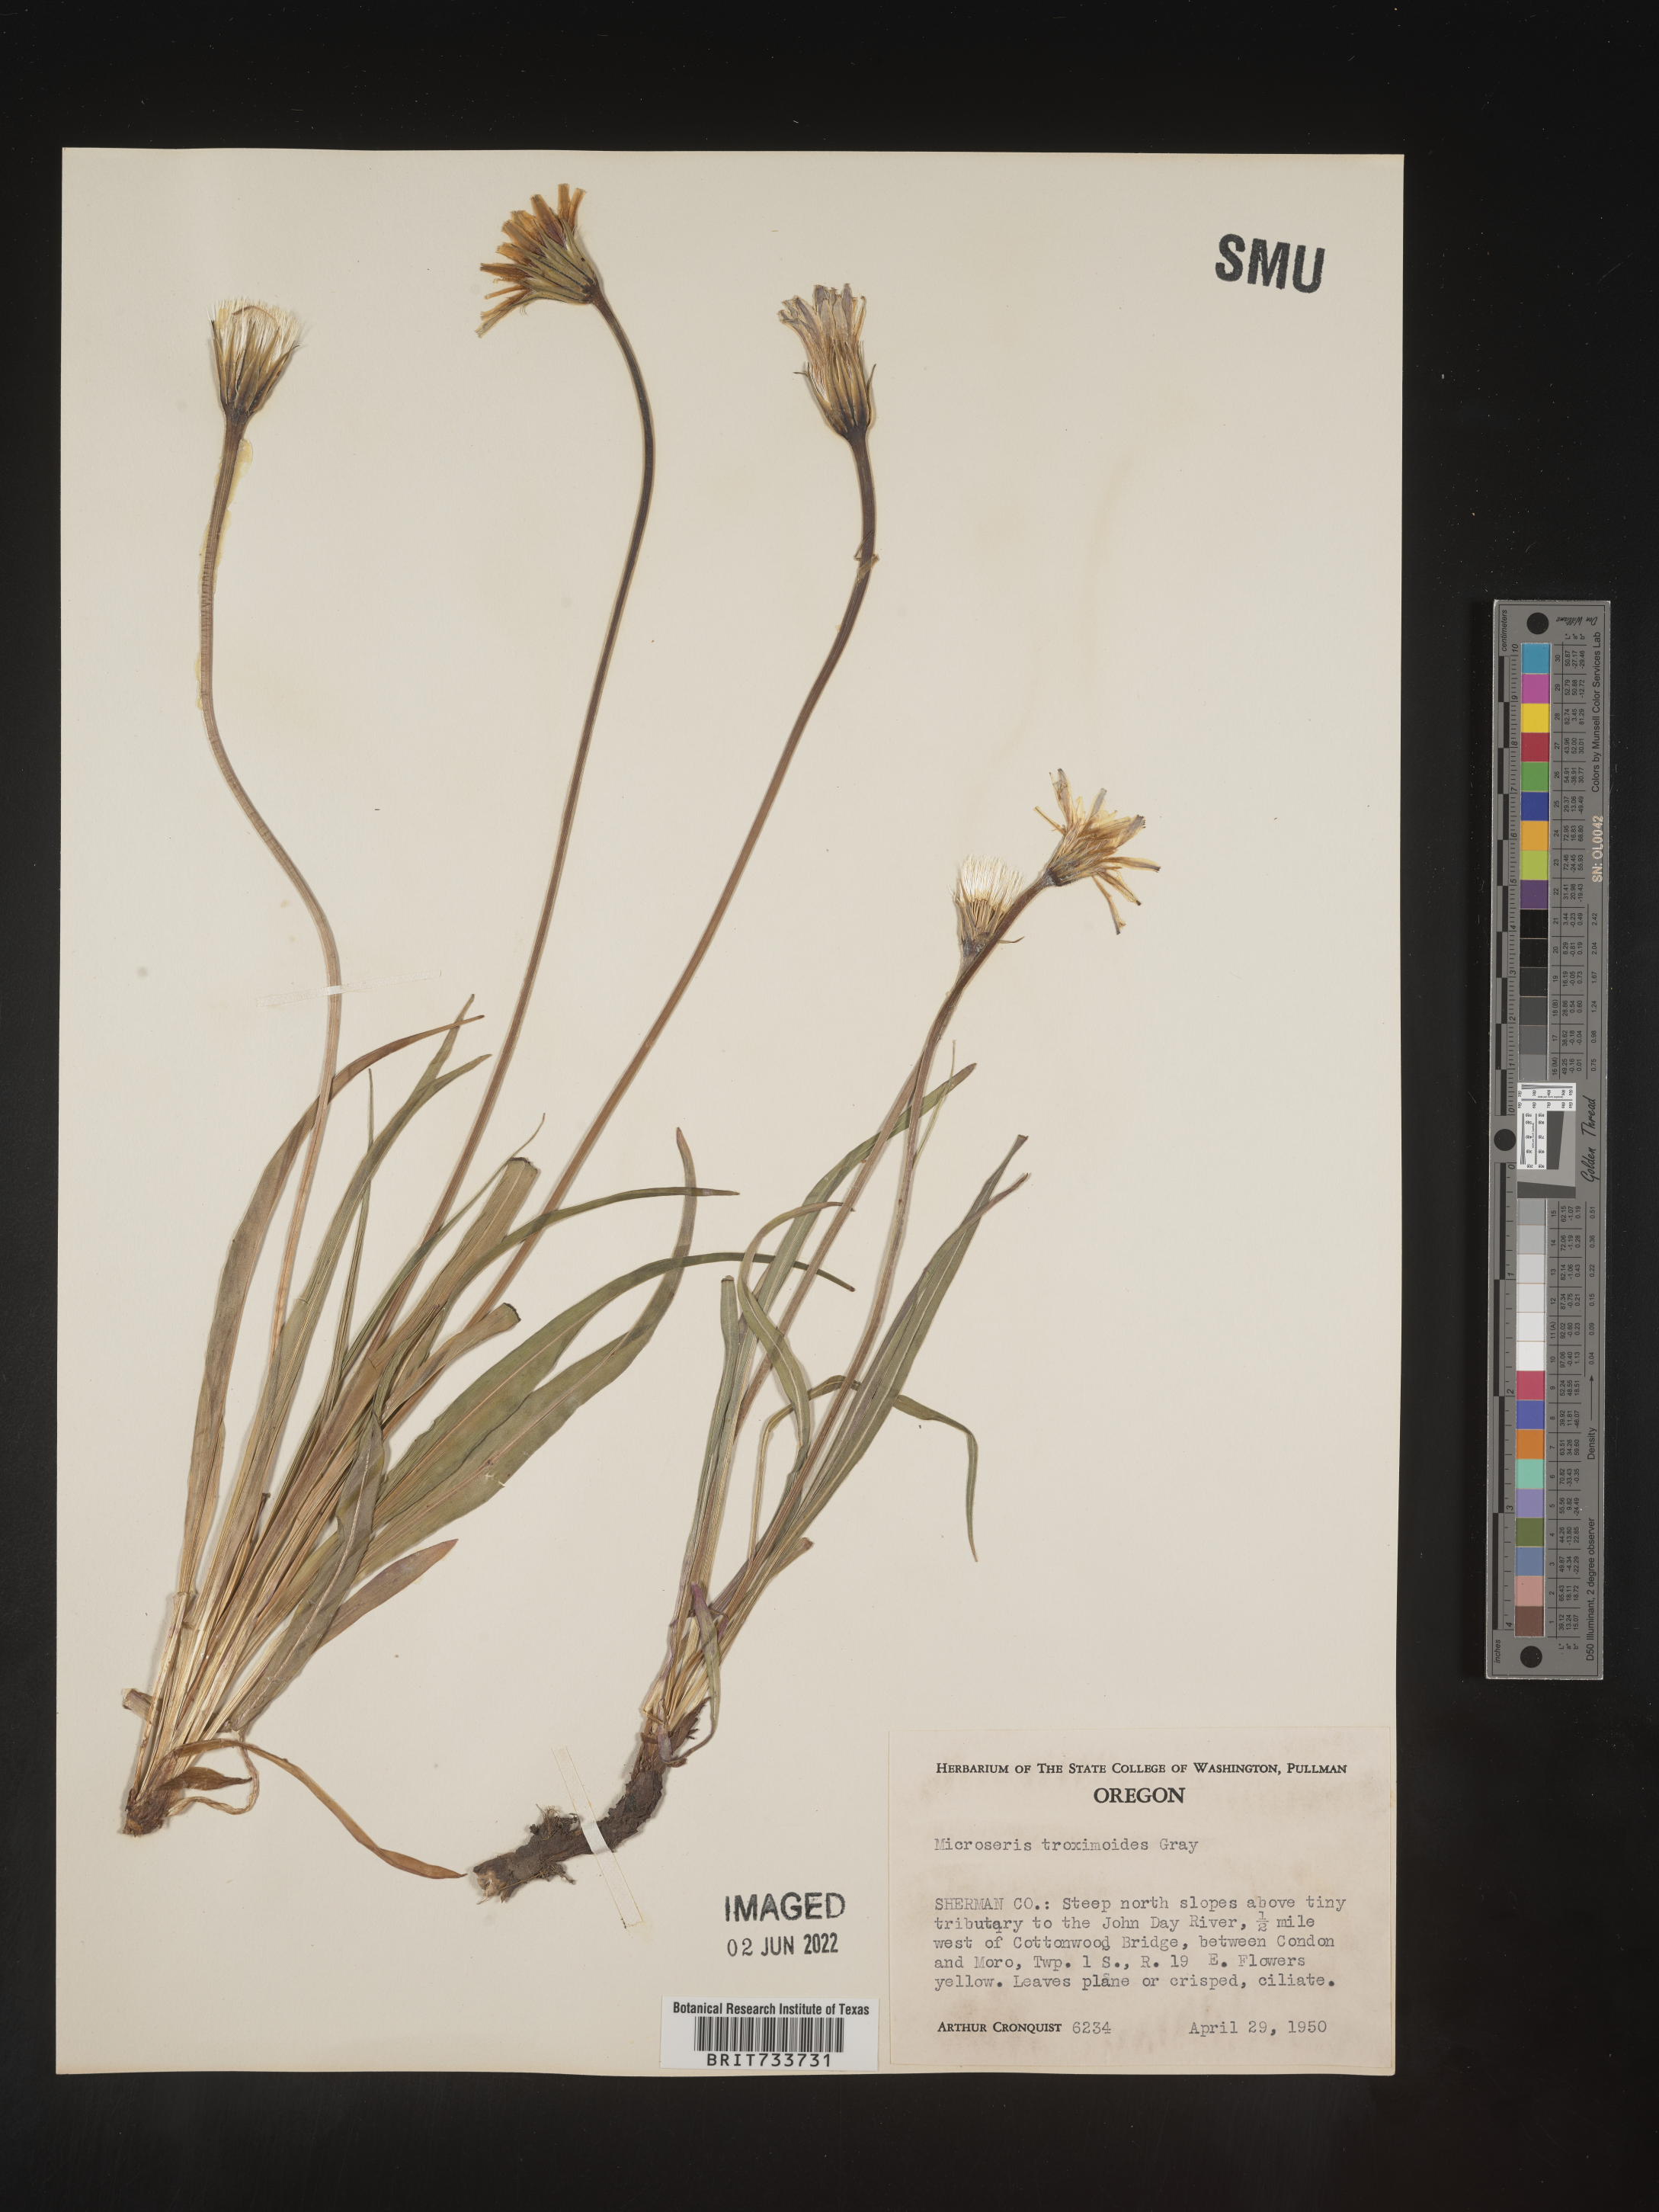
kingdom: Plantae
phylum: Tracheophyta
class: Magnoliopsida
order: Asterales
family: Asteraceae
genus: Microseris
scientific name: Microseris
